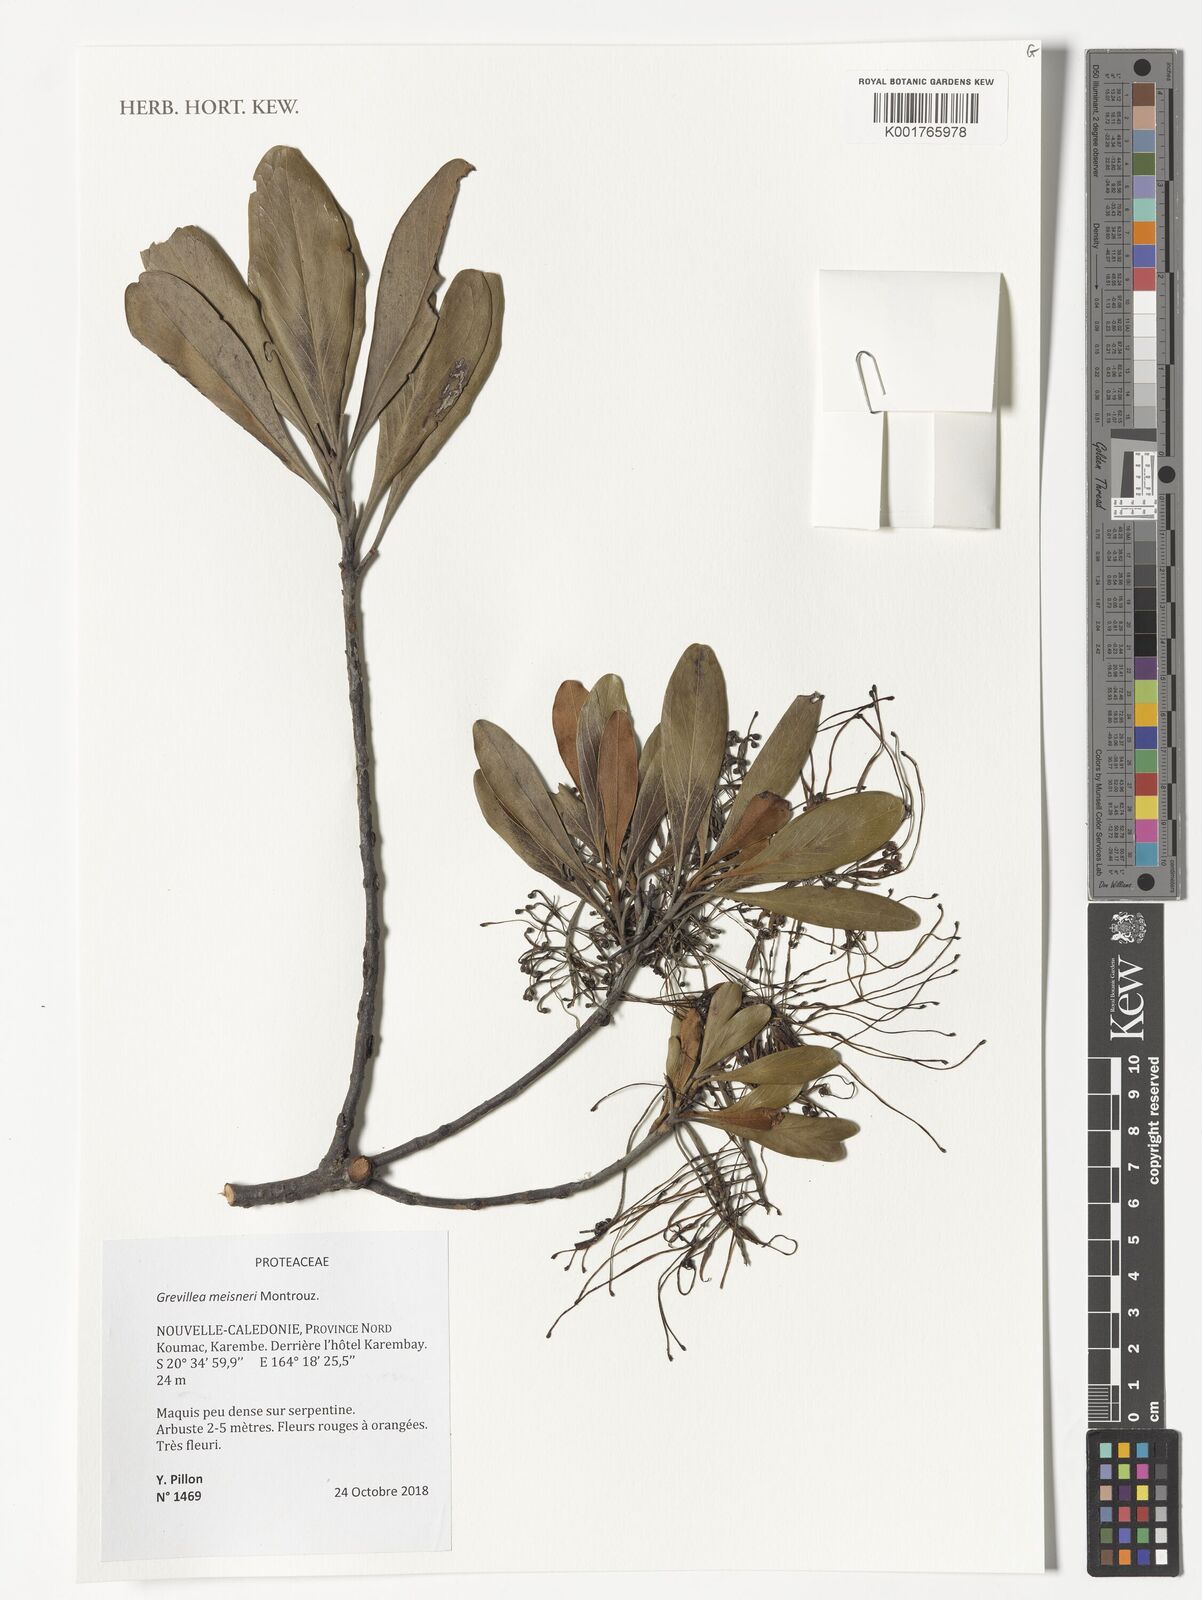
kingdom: Plantae
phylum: Tracheophyta
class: Magnoliopsida
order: Proteales
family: Proteaceae
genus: Grevillea
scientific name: Grevillea meisneri
